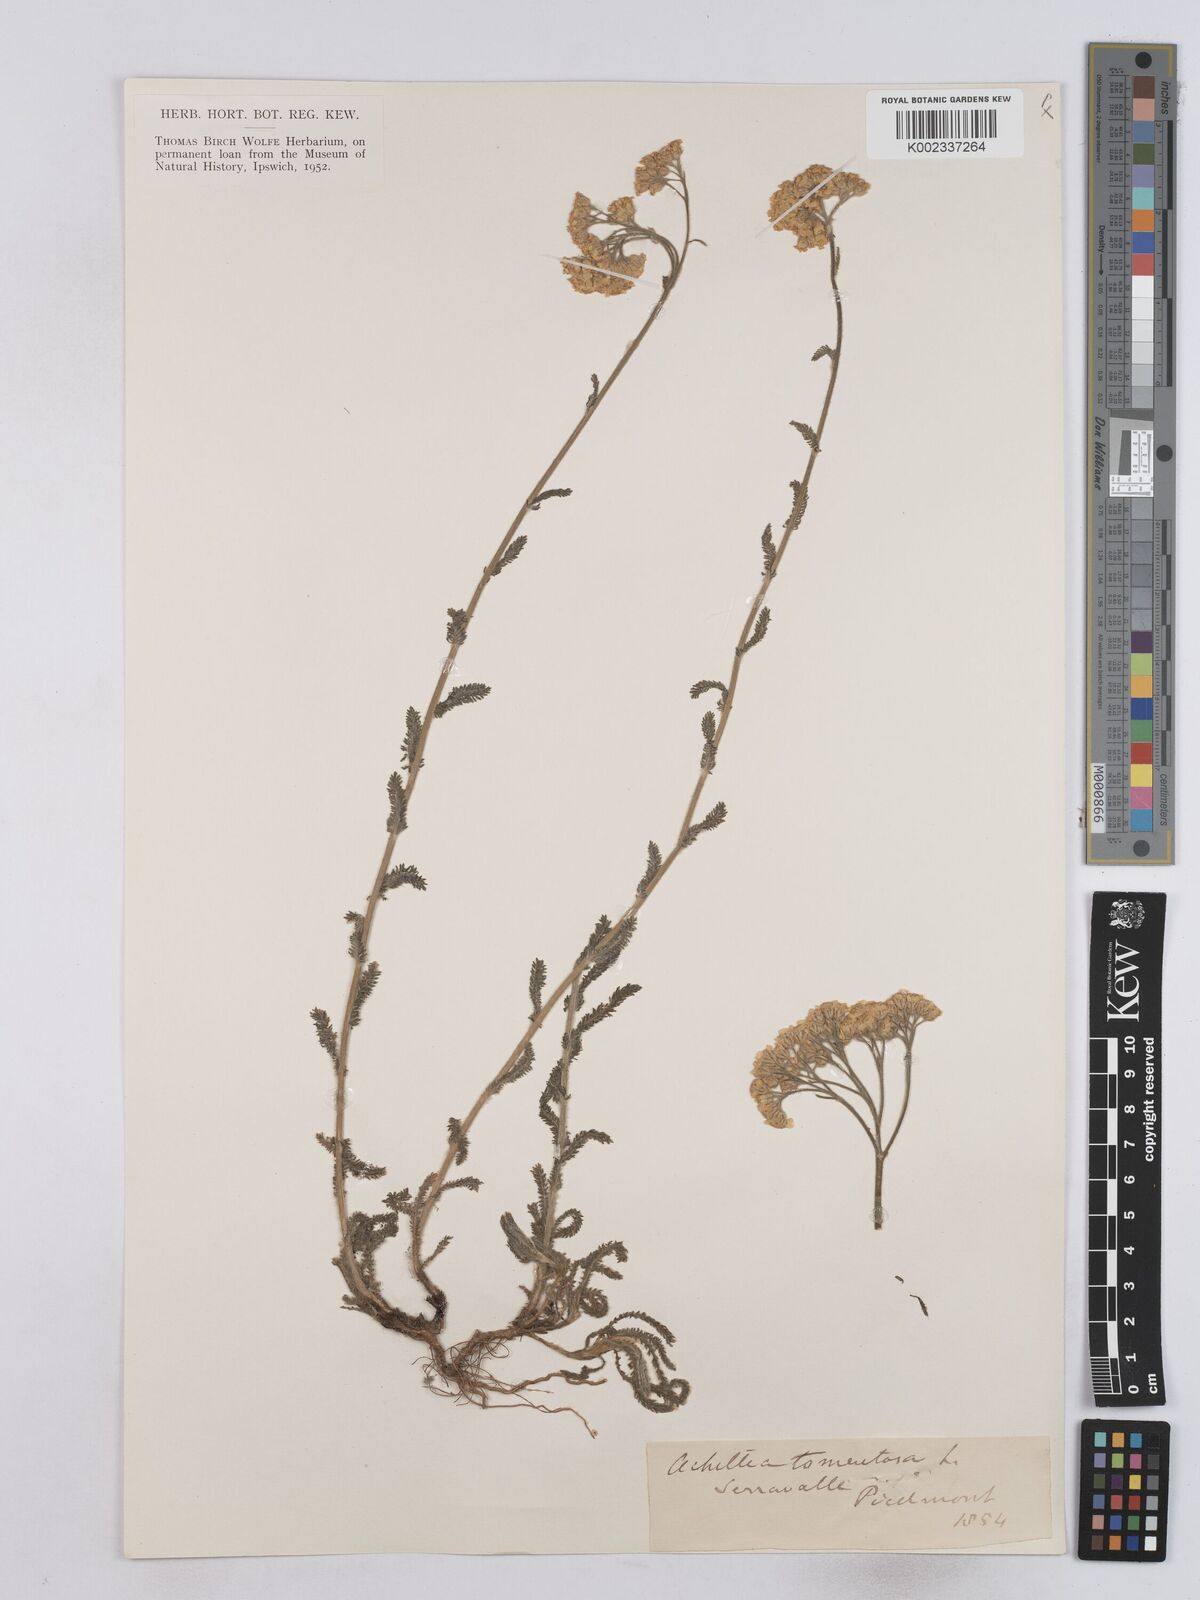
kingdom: Plantae
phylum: Tracheophyta
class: Magnoliopsida
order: Asterales
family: Asteraceae
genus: Achillea
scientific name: Achillea tomentosa
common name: Yellow milfoil
